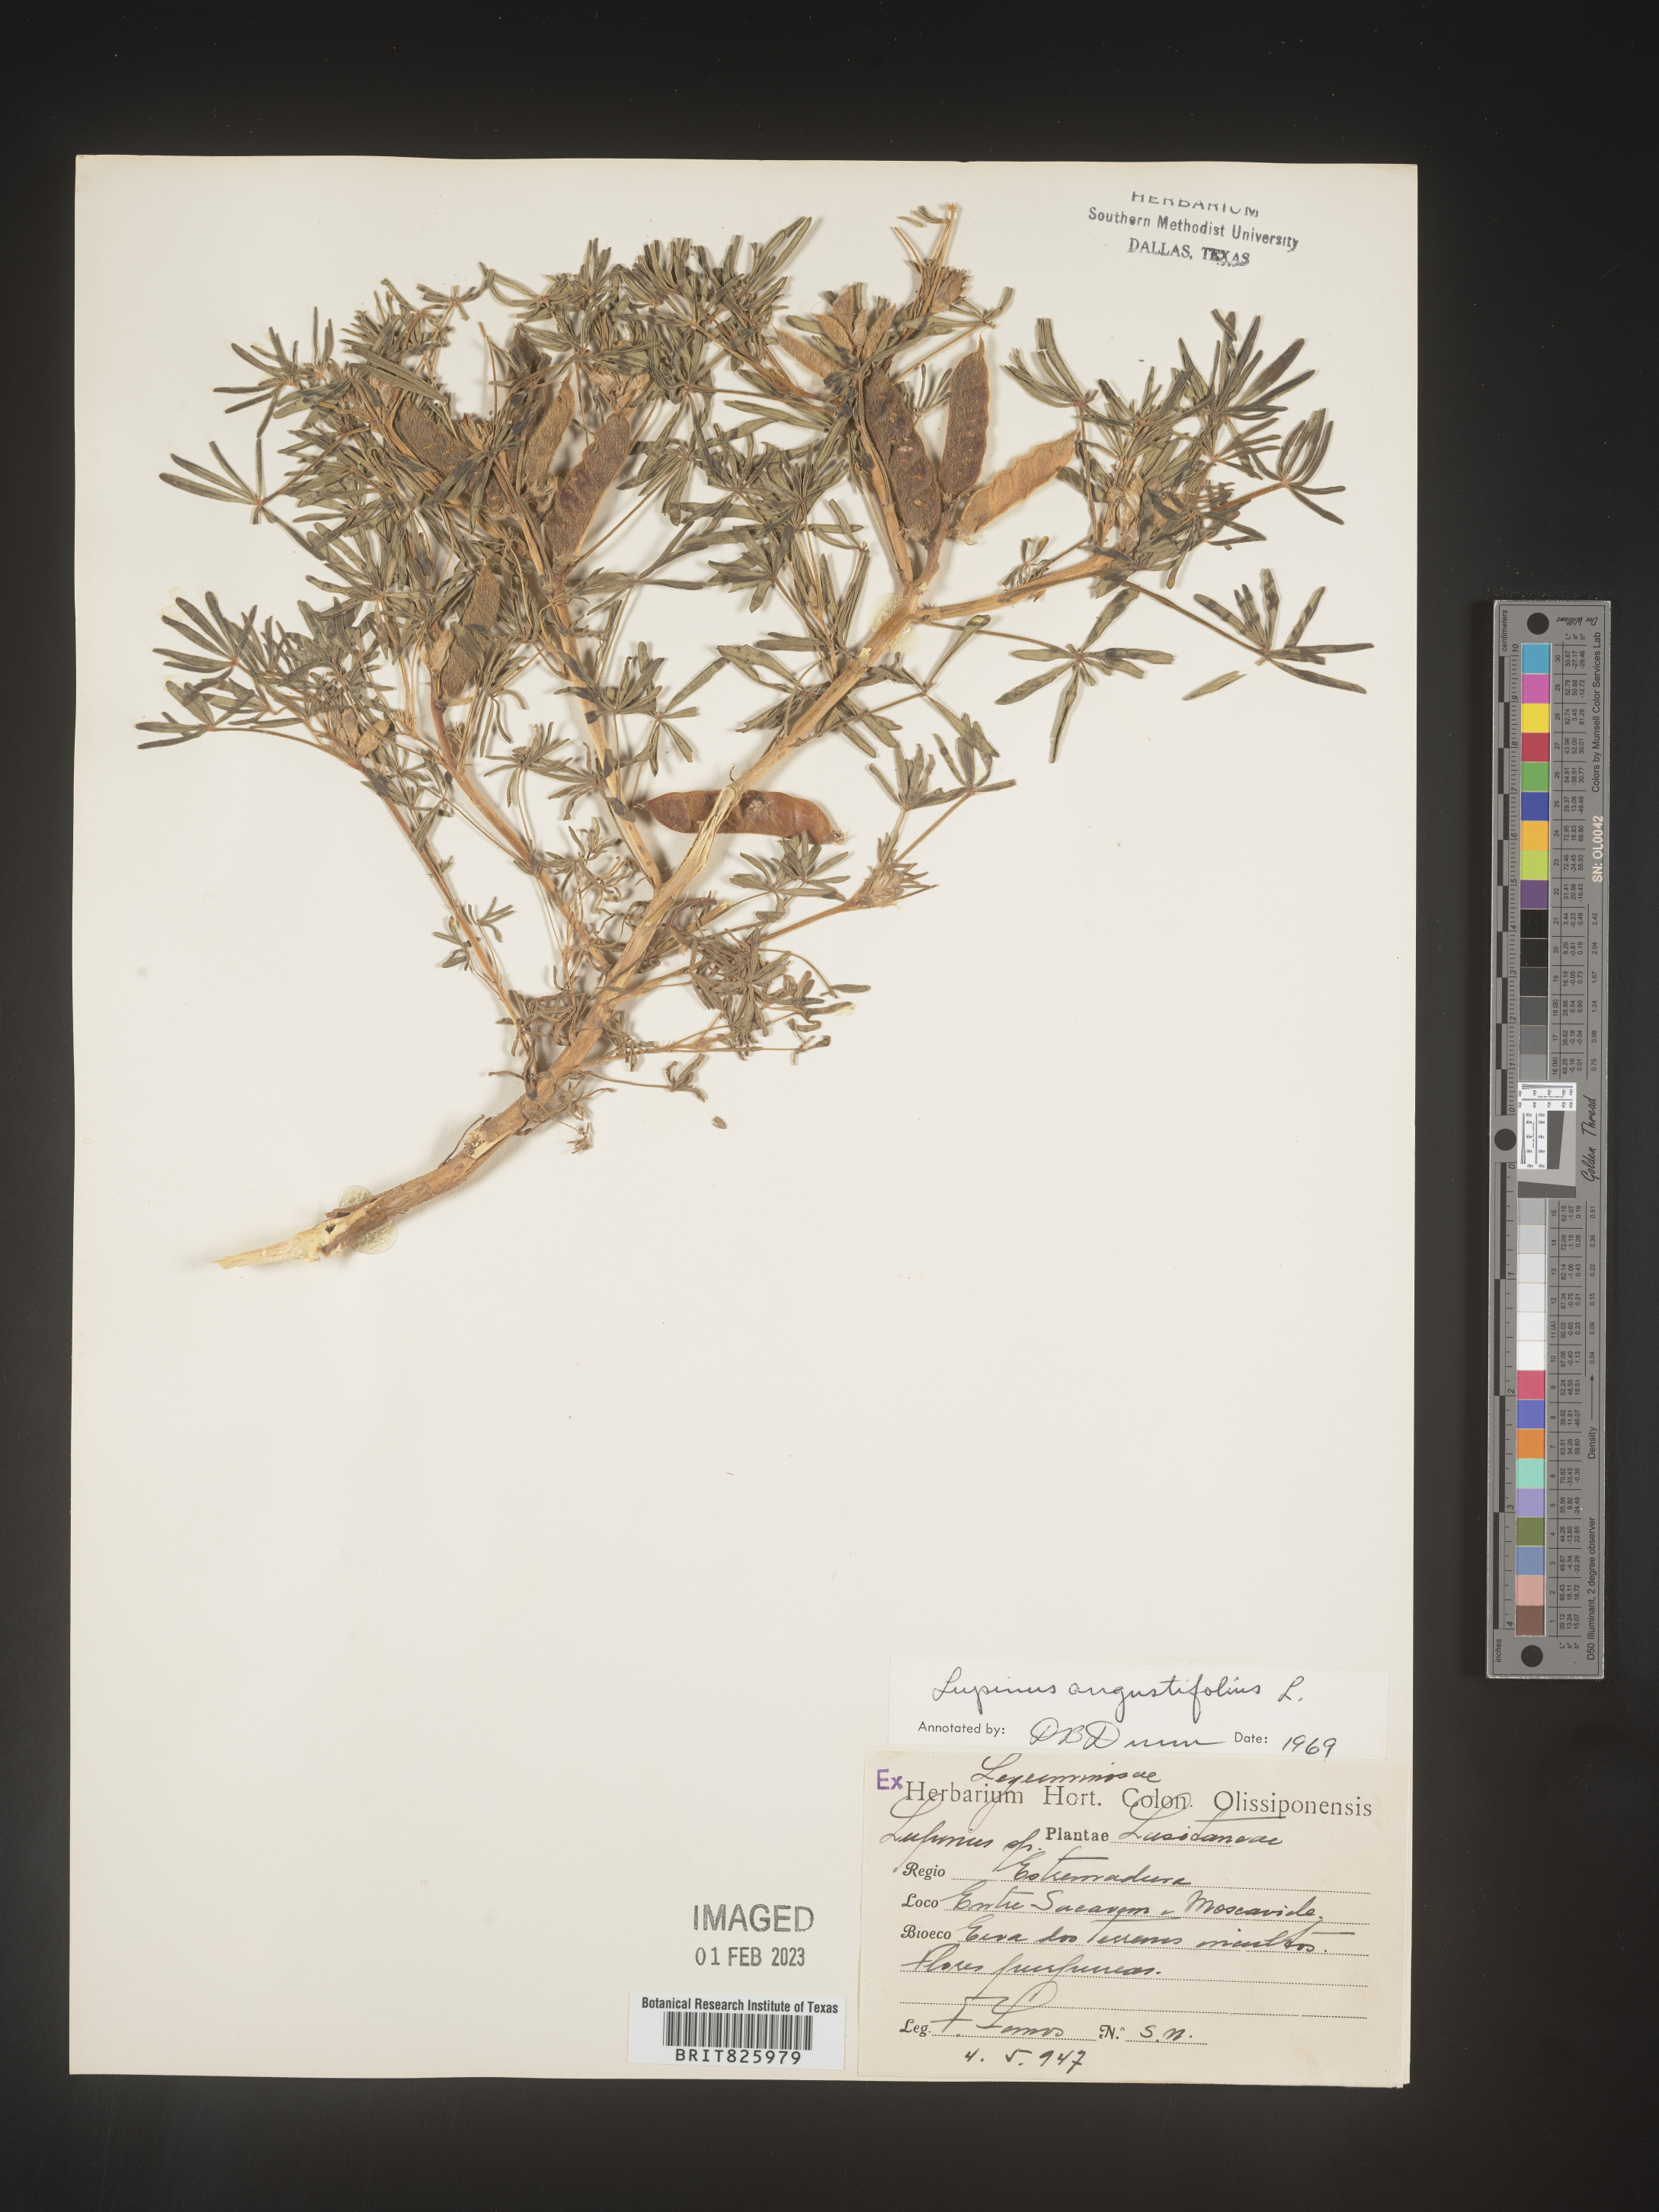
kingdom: Plantae
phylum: Tracheophyta
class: Magnoliopsida
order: Fabales
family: Fabaceae
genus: Lupinus
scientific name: Lupinus
